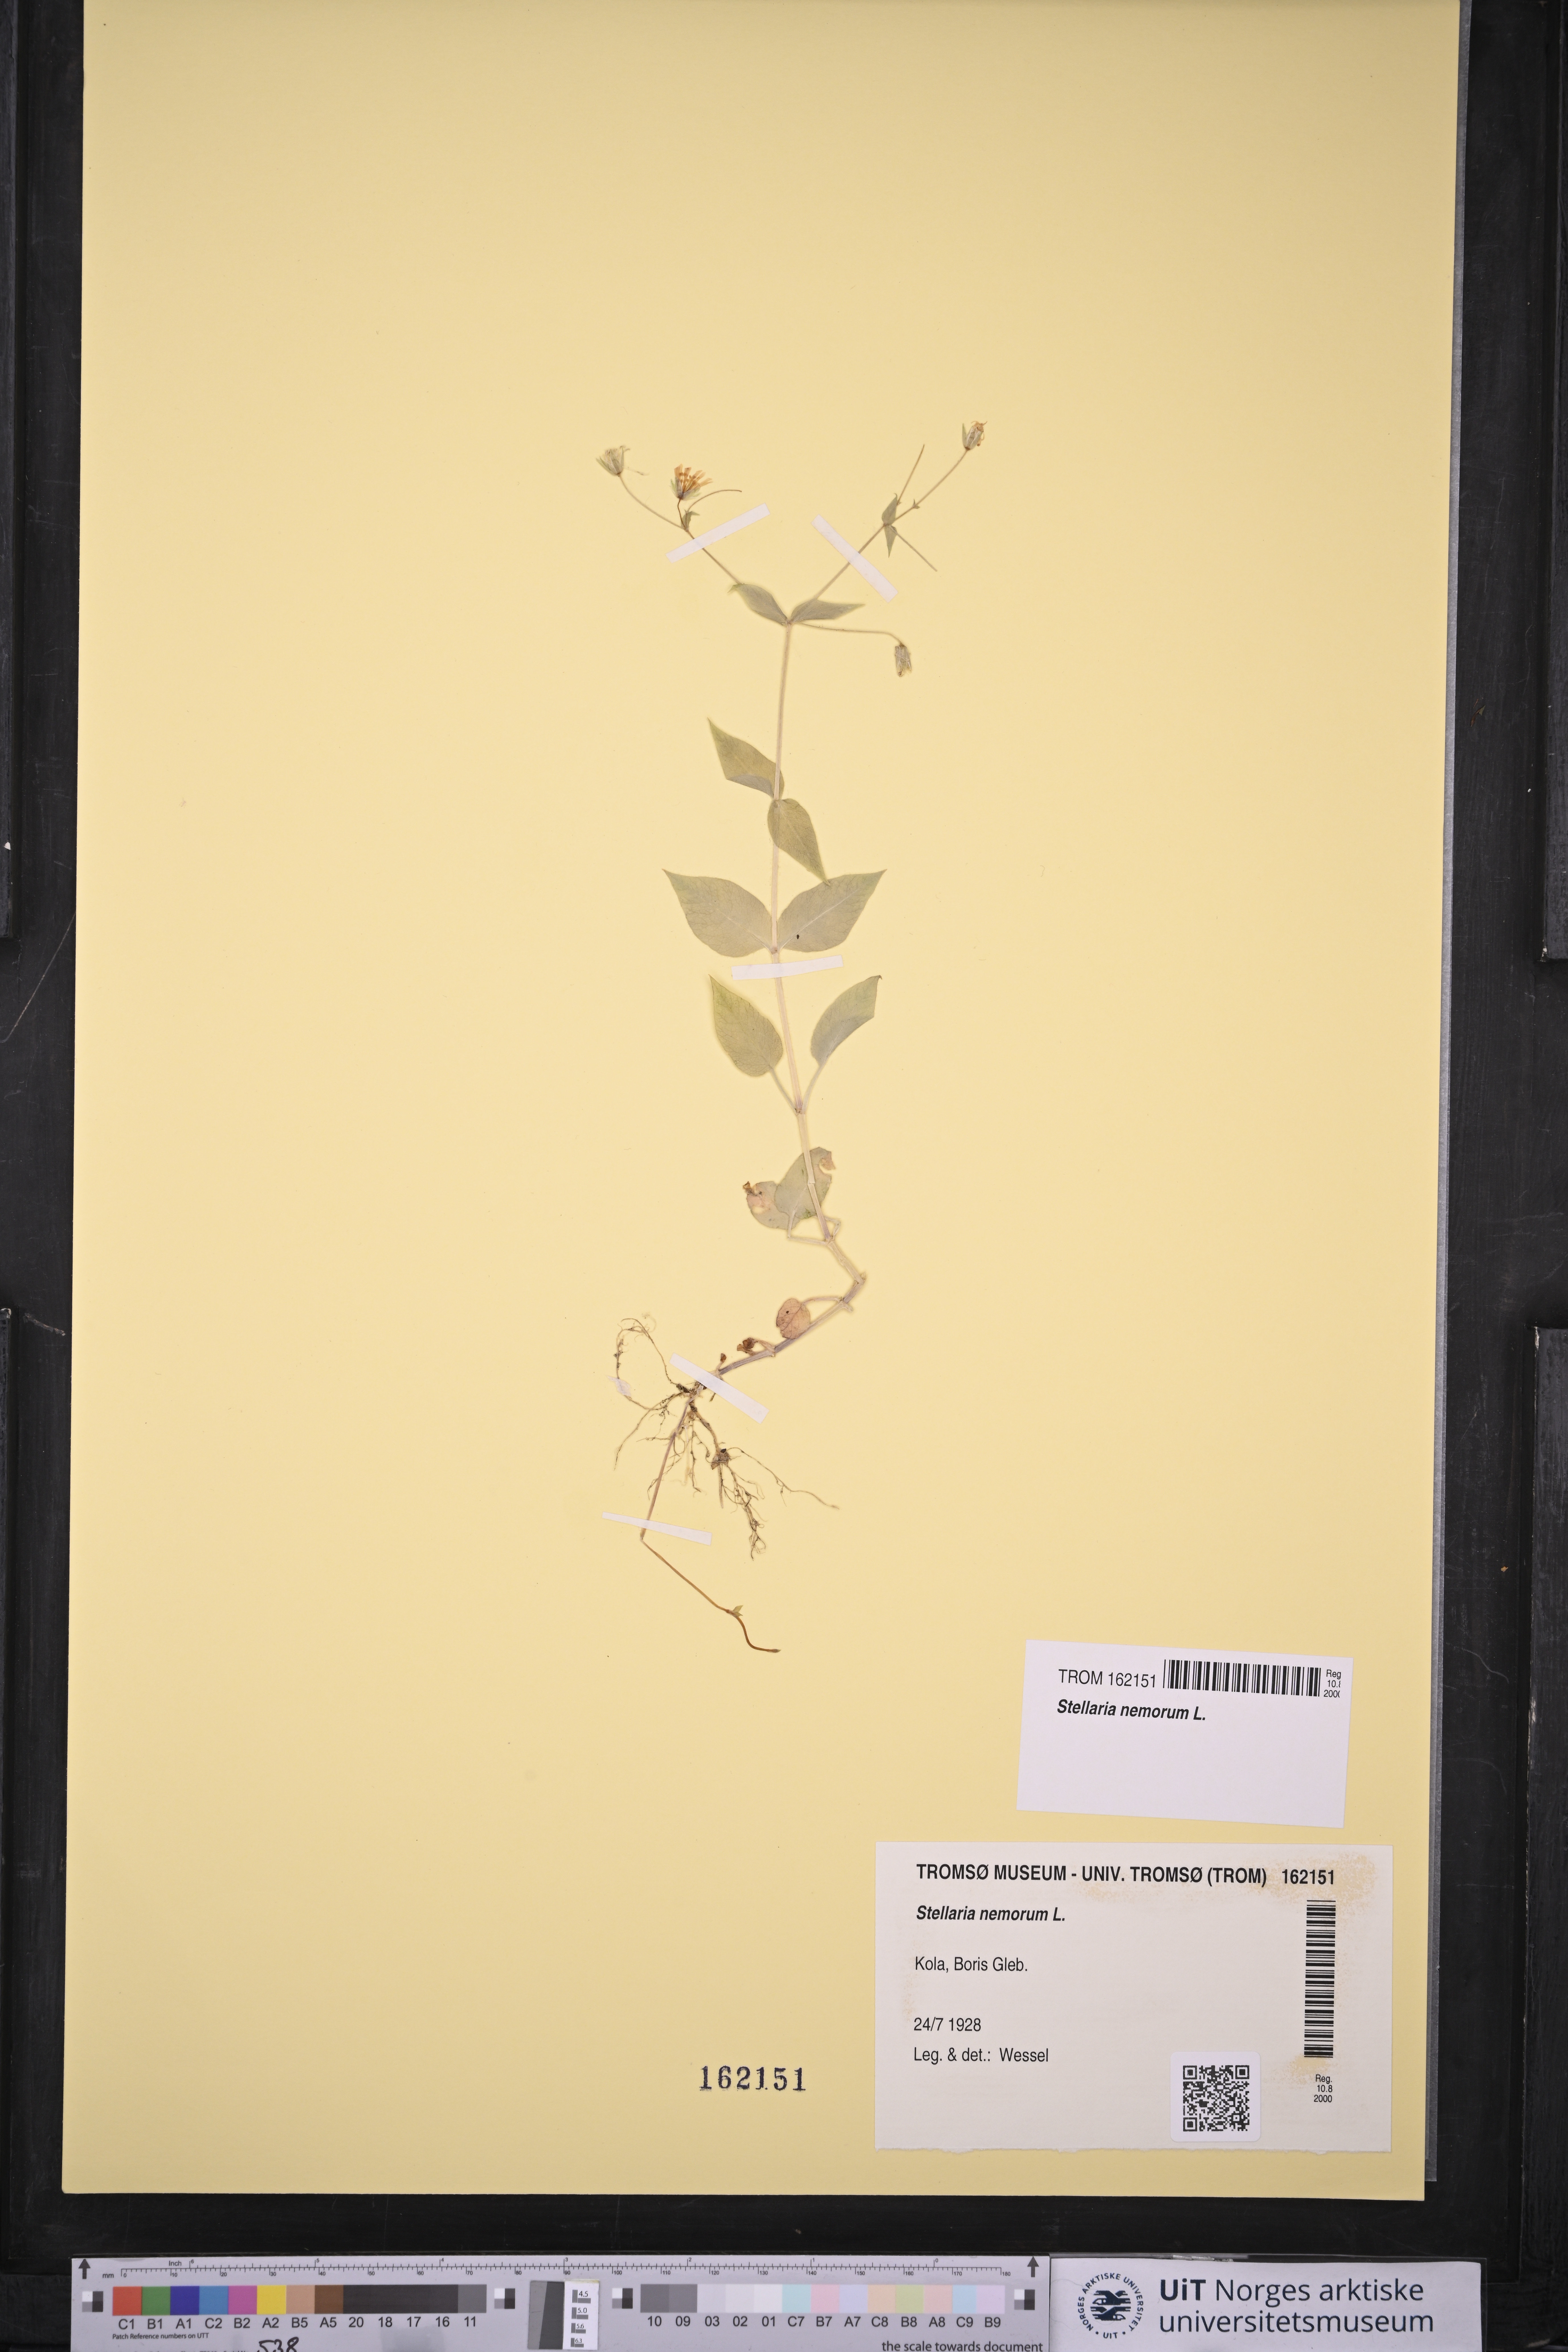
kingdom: Plantae
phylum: Tracheophyta
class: Magnoliopsida
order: Caryophyllales
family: Caryophyllaceae
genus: Stellaria
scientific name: Stellaria nemorum
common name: Wood stitchwort
